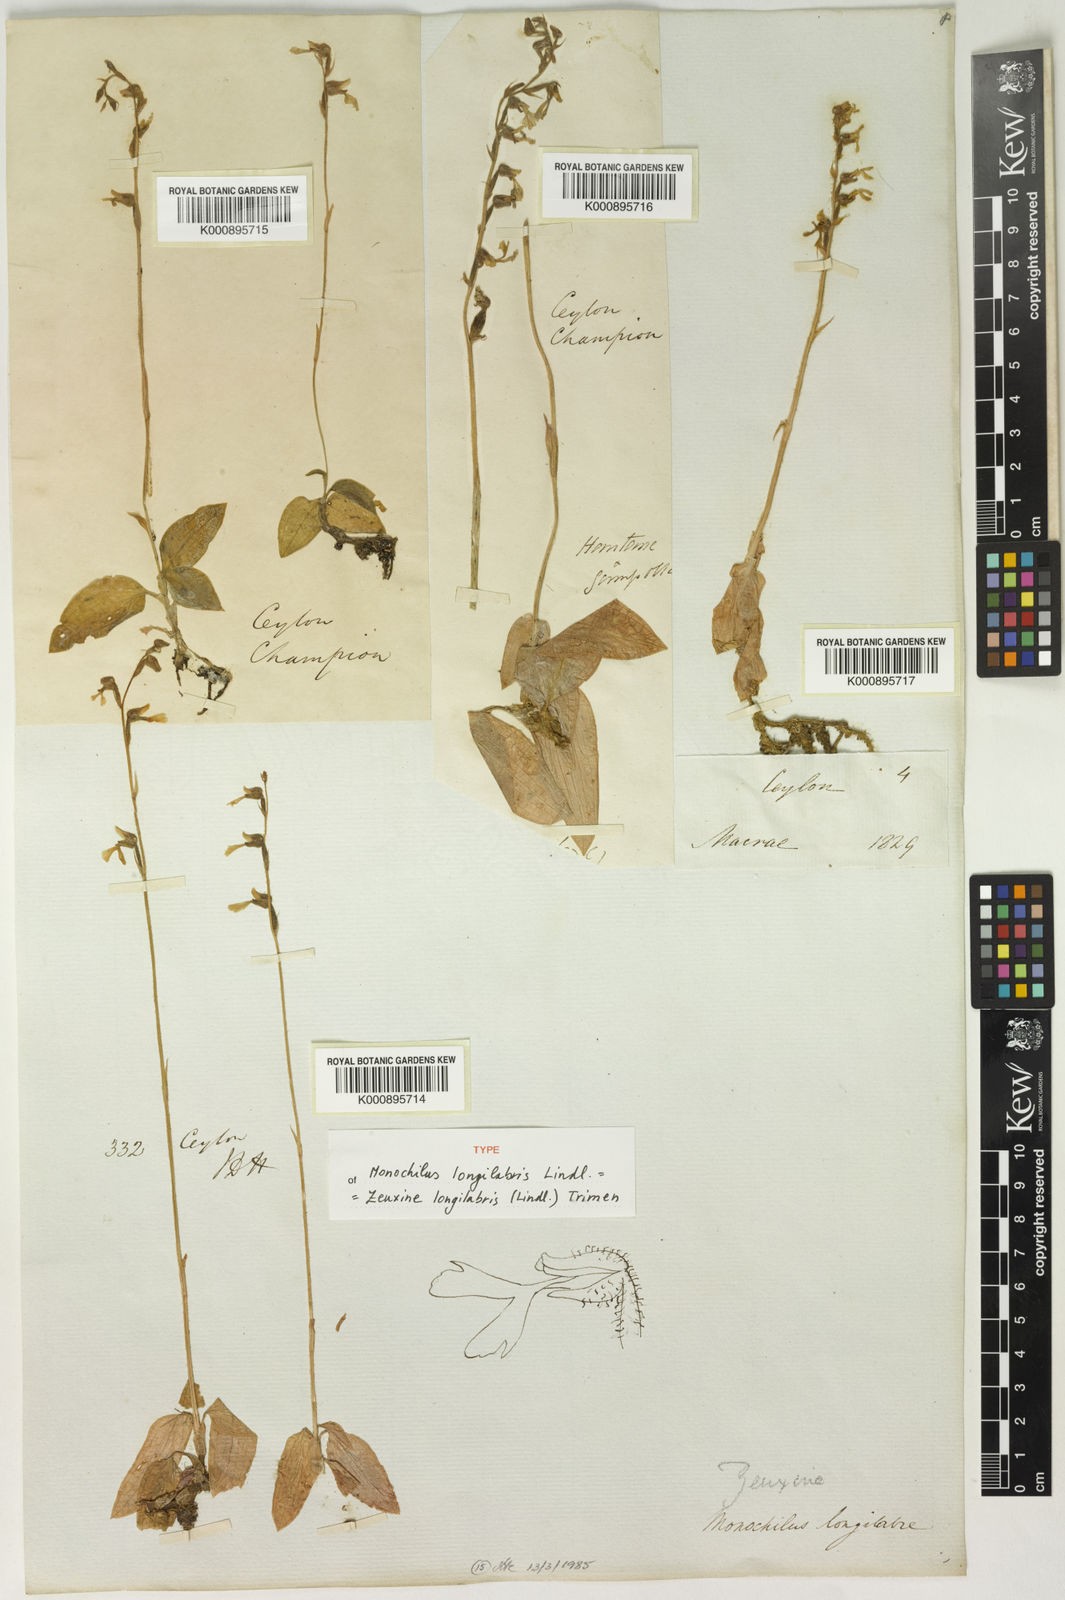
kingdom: Plantae
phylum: Tracheophyta
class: Liliopsida
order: Asparagales
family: Orchidaceae
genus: Zeuxine
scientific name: Zeuxine longilabris
